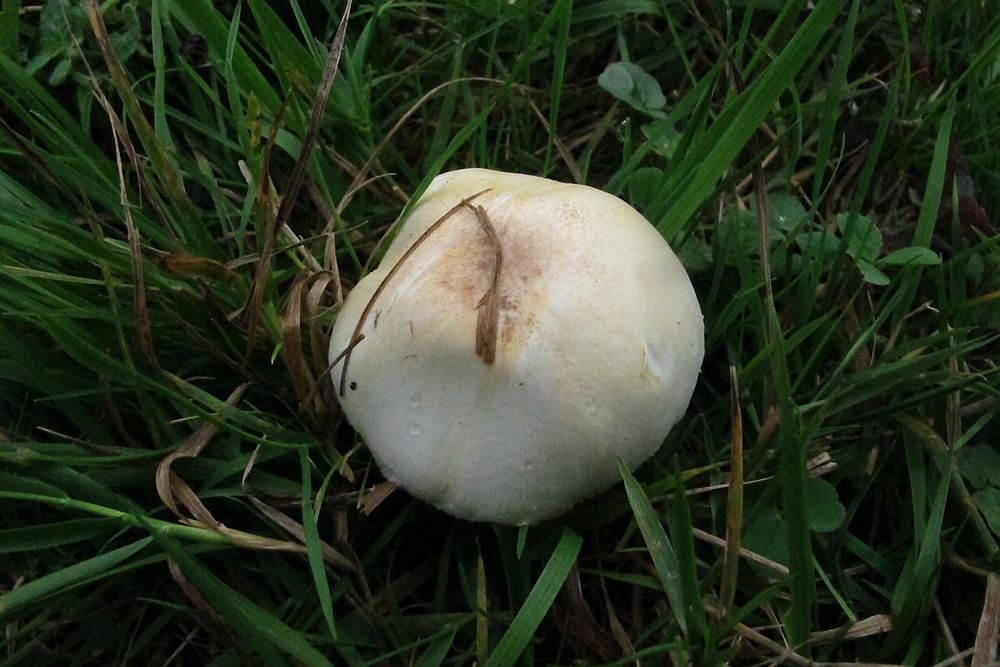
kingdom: Fungi
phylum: Basidiomycota
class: Agaricomycetes
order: Agaricales
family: Agaricaceae
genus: Agaricus
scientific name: Agaricus dulcidulus
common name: blegrød champignon
